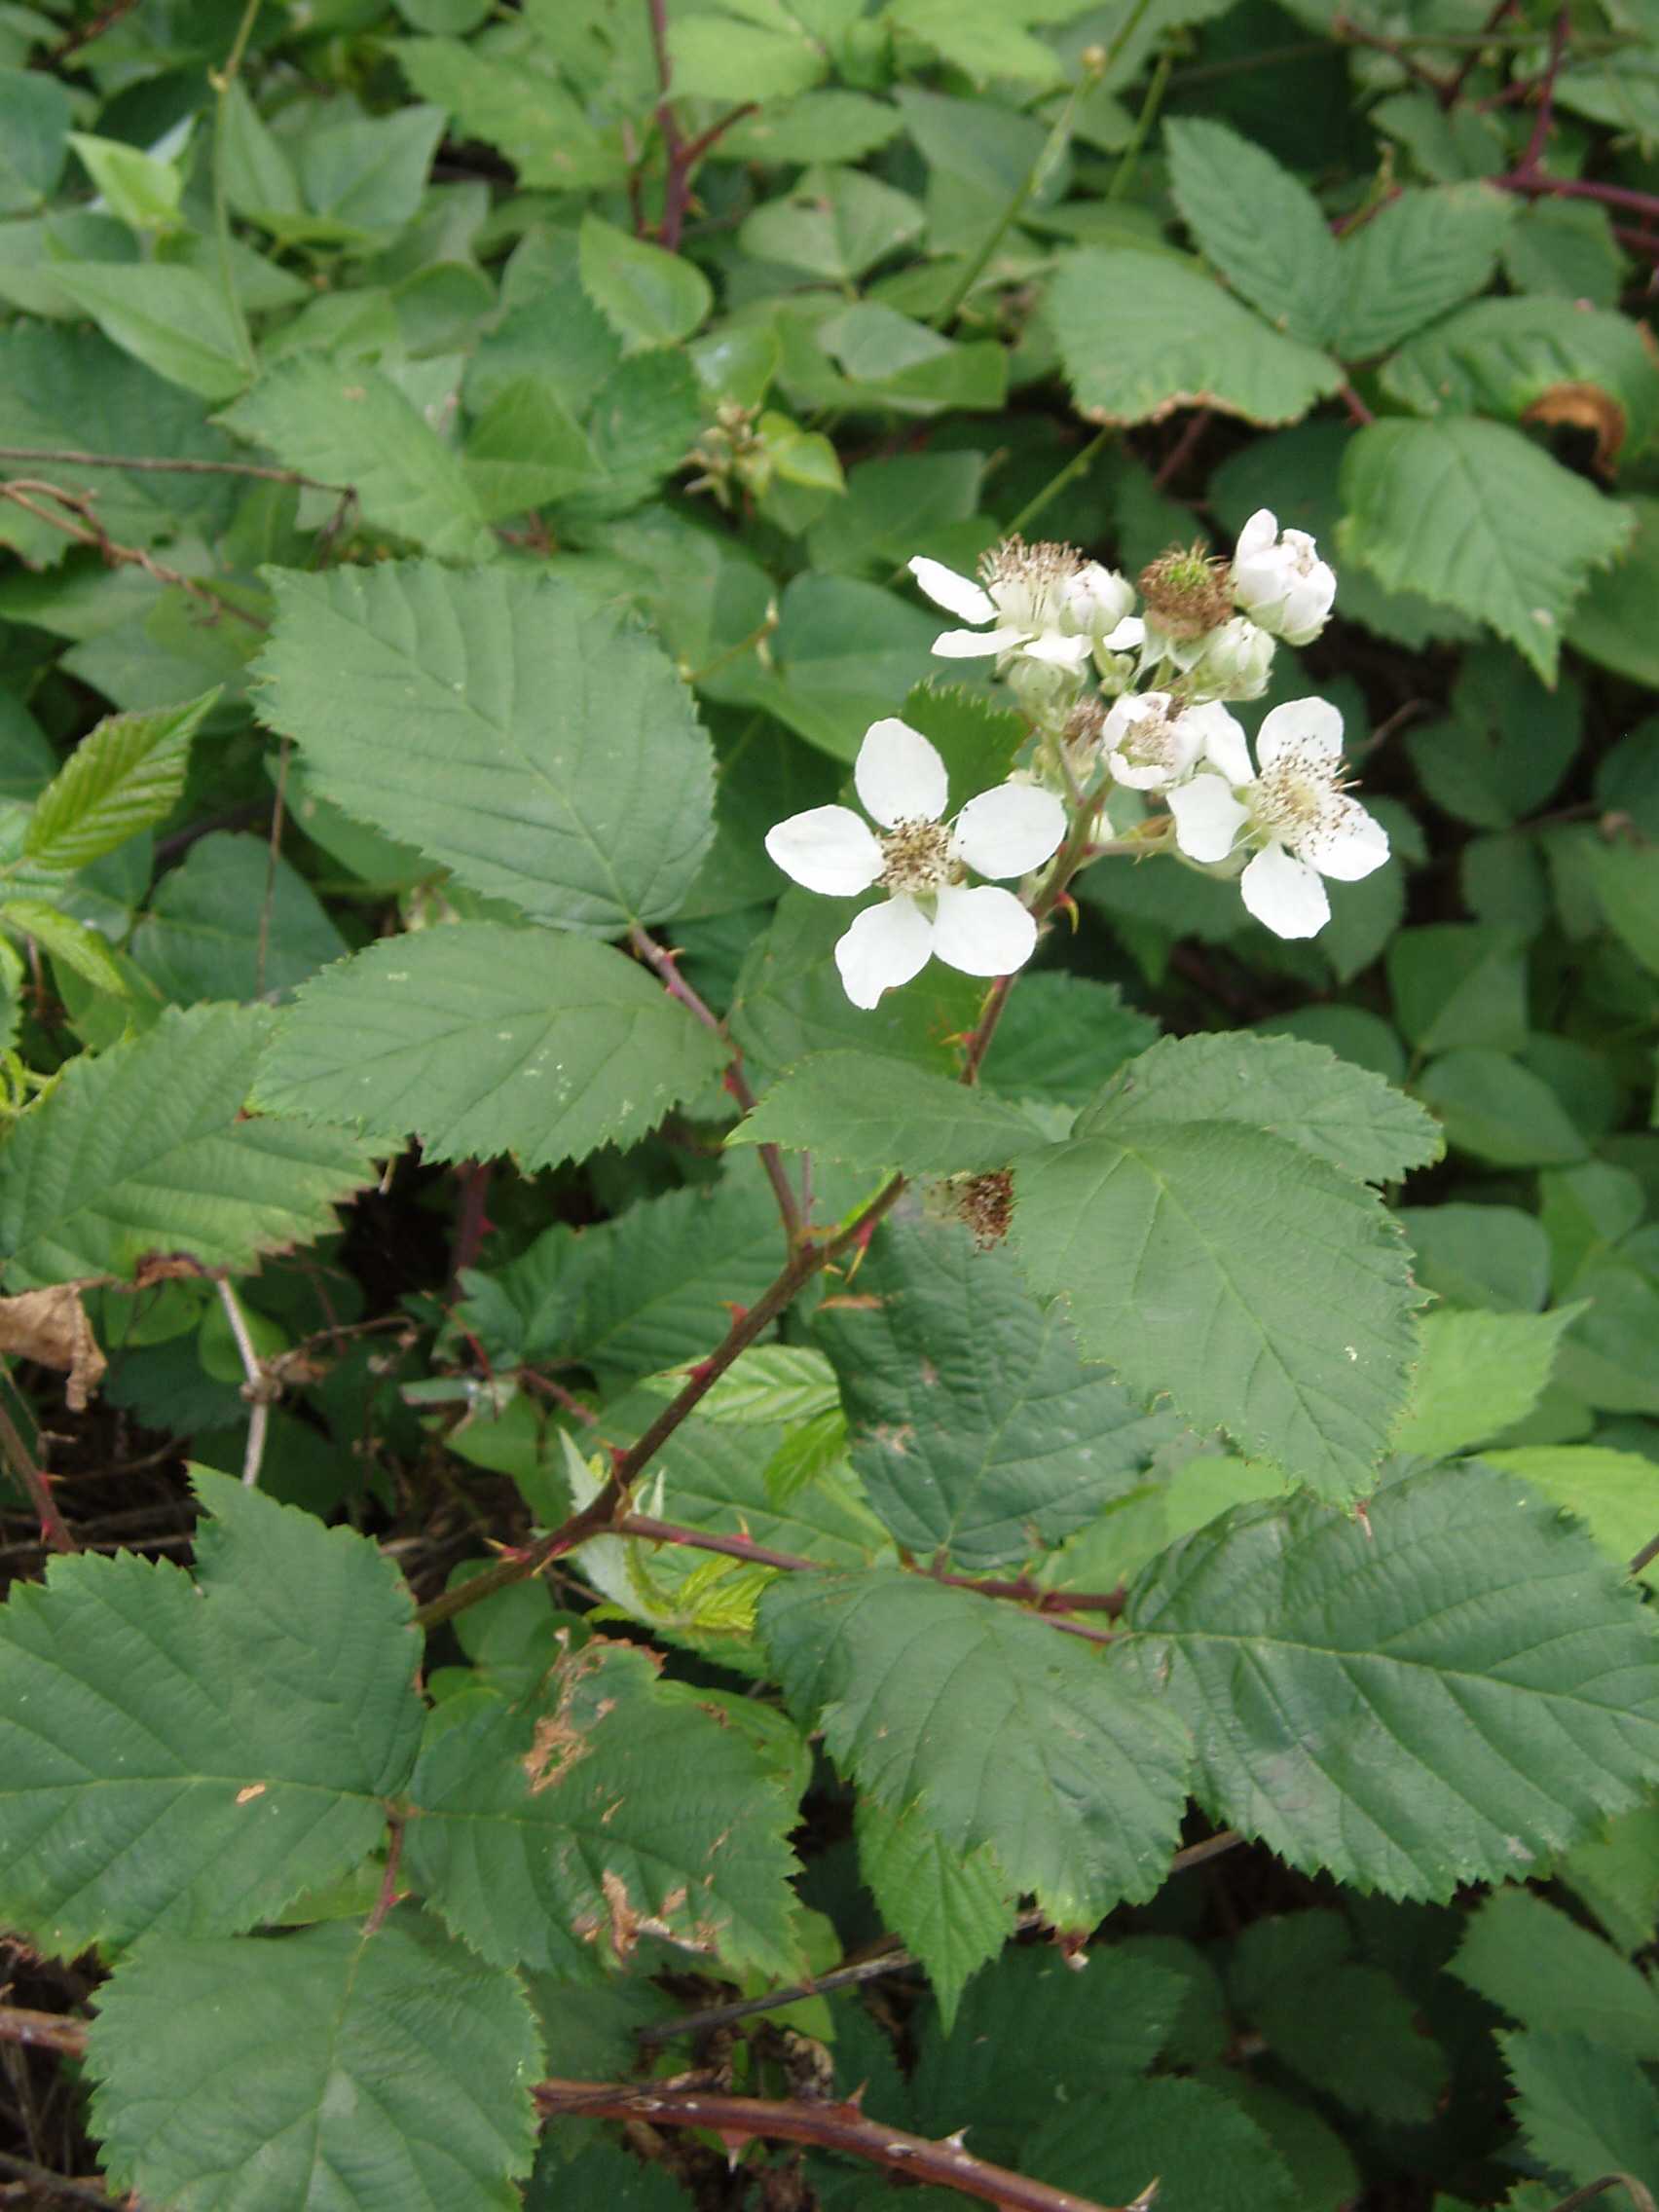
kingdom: Plantae
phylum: Tracheophyta
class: Magnoliopsida
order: Rosales
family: Rosaceae
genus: Rubus
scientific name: Rubus praecox
